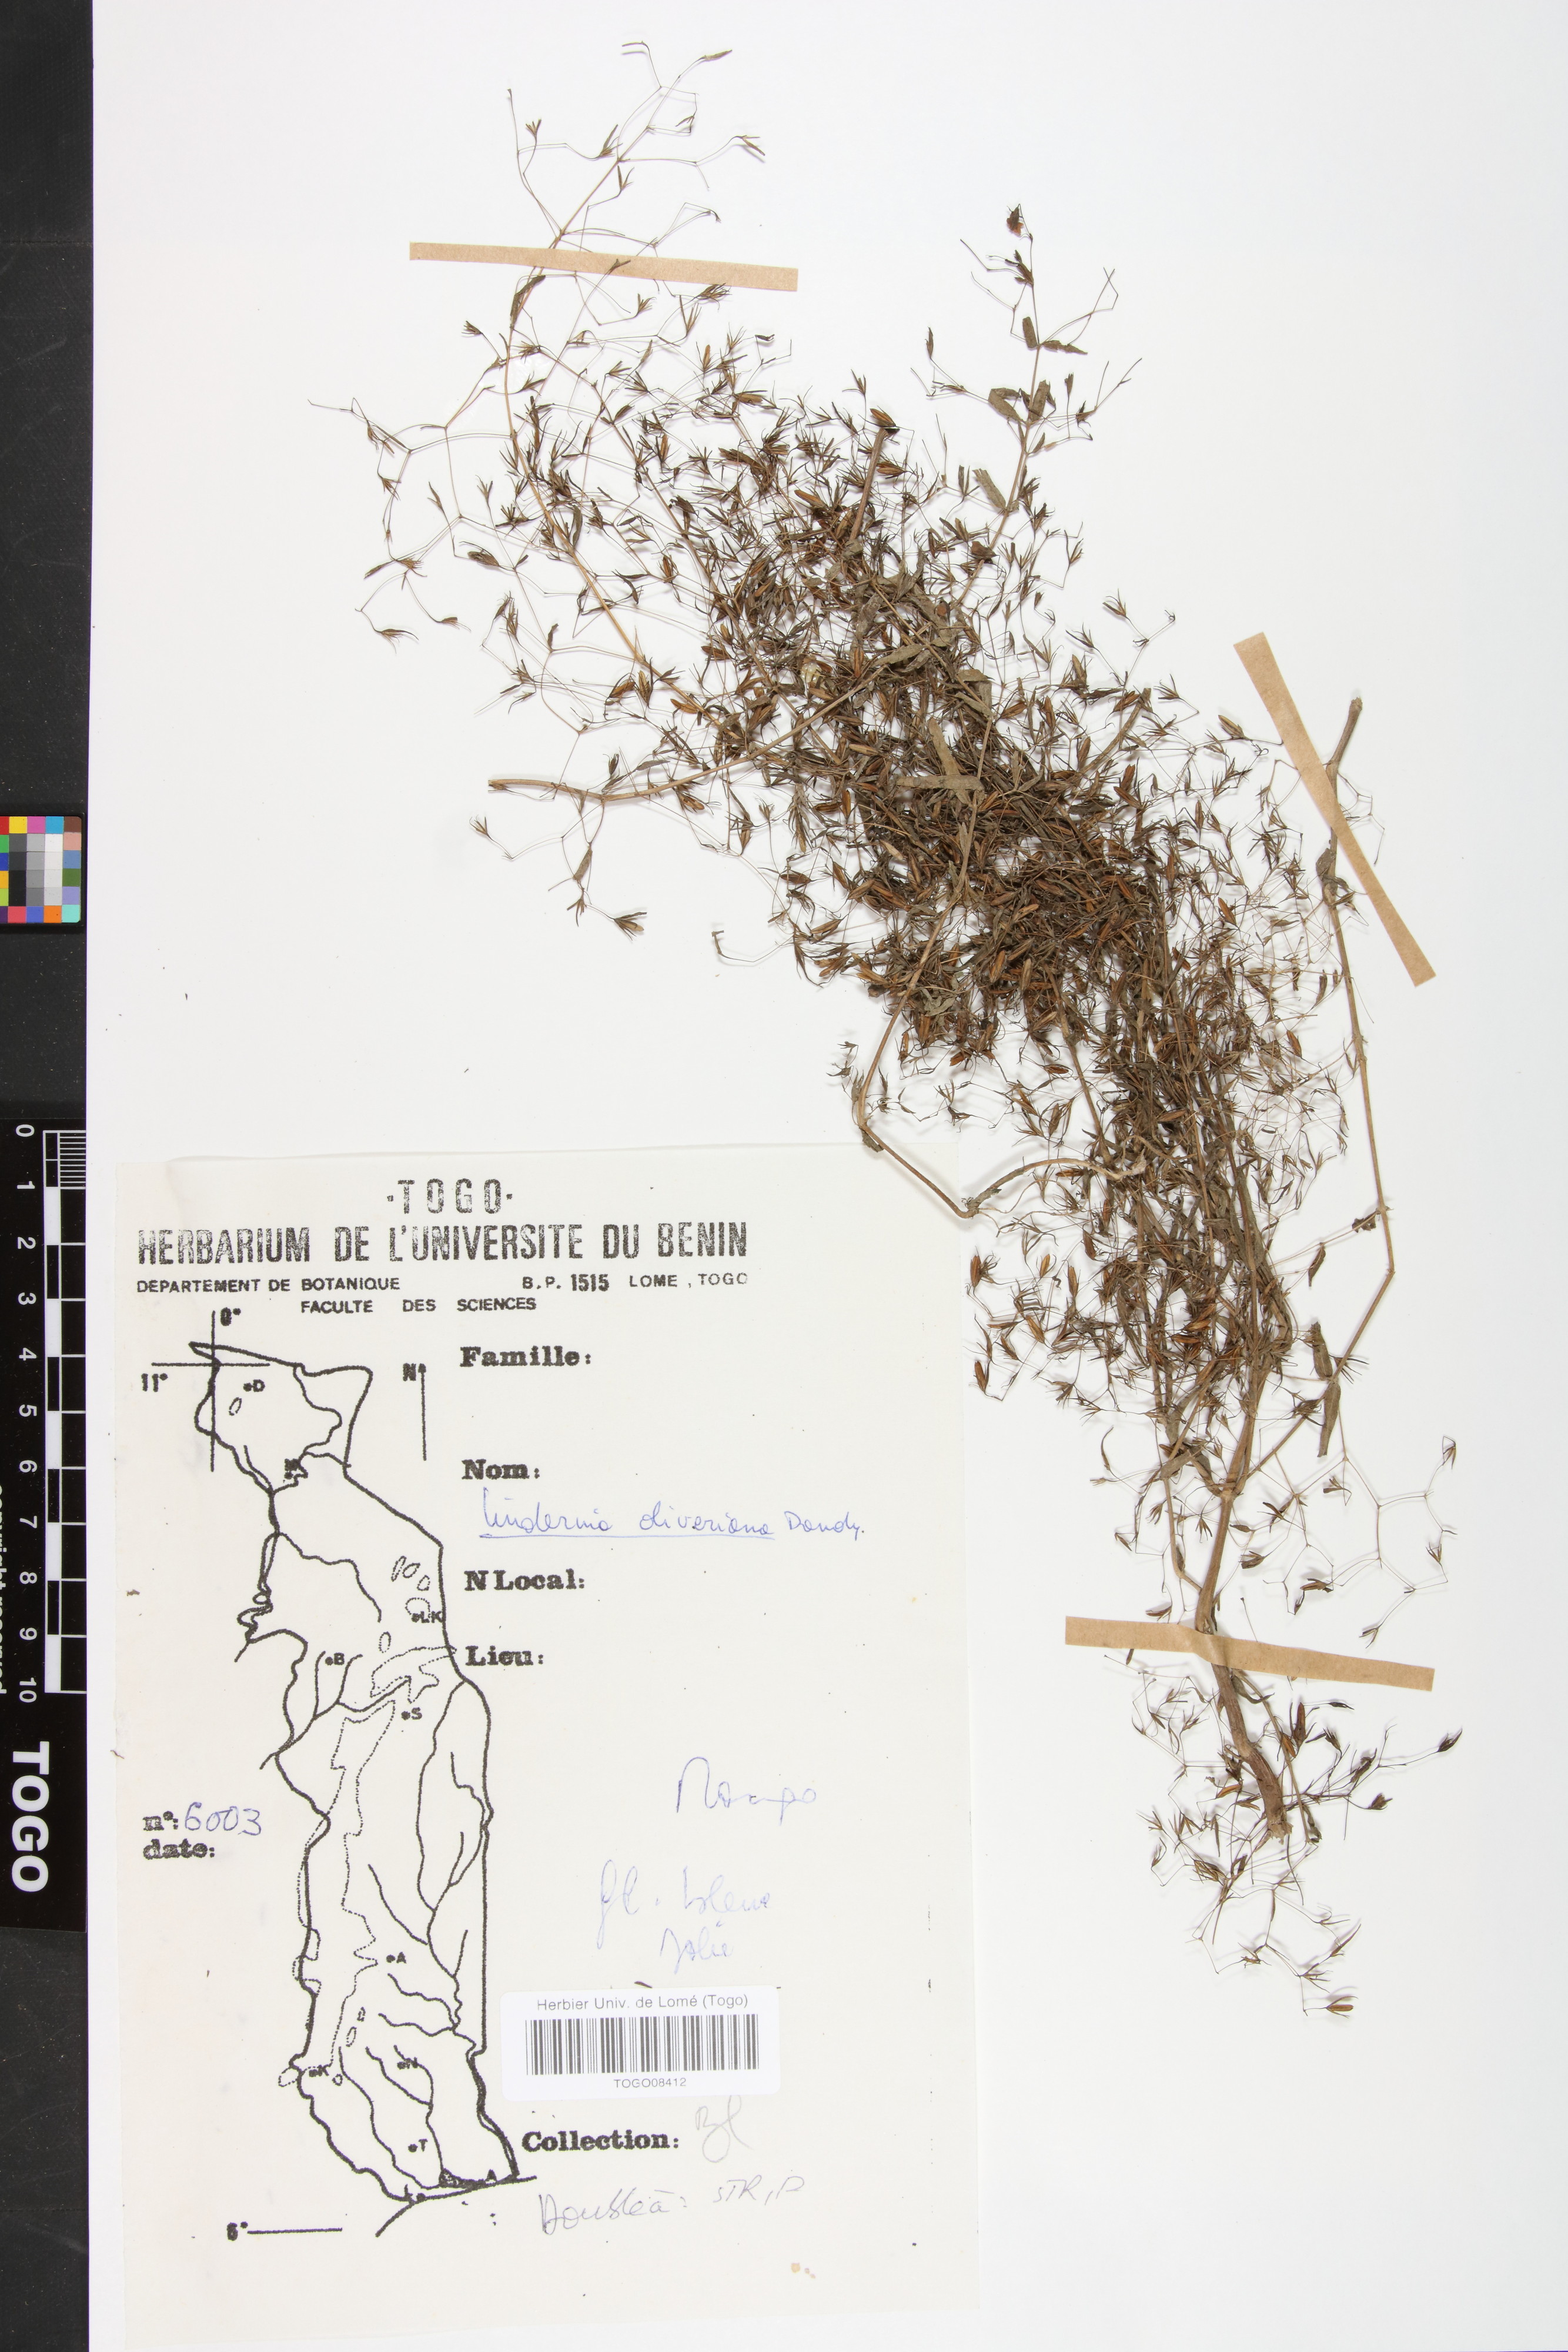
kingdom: Plantae
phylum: Tracheophyta
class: Magnoliopsida
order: Lamiales
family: Linderniaceae
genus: Craterostigma
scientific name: Craterostigma newtonii
